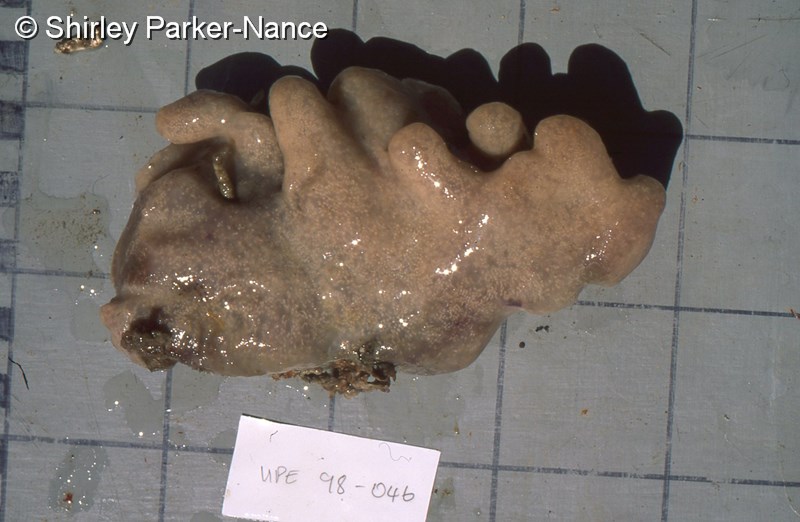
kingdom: Animalia
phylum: Chordata
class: Ascidiacea
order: Aplousobranchia
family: Polyclinidae
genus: Aplidium
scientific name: Aplidium
